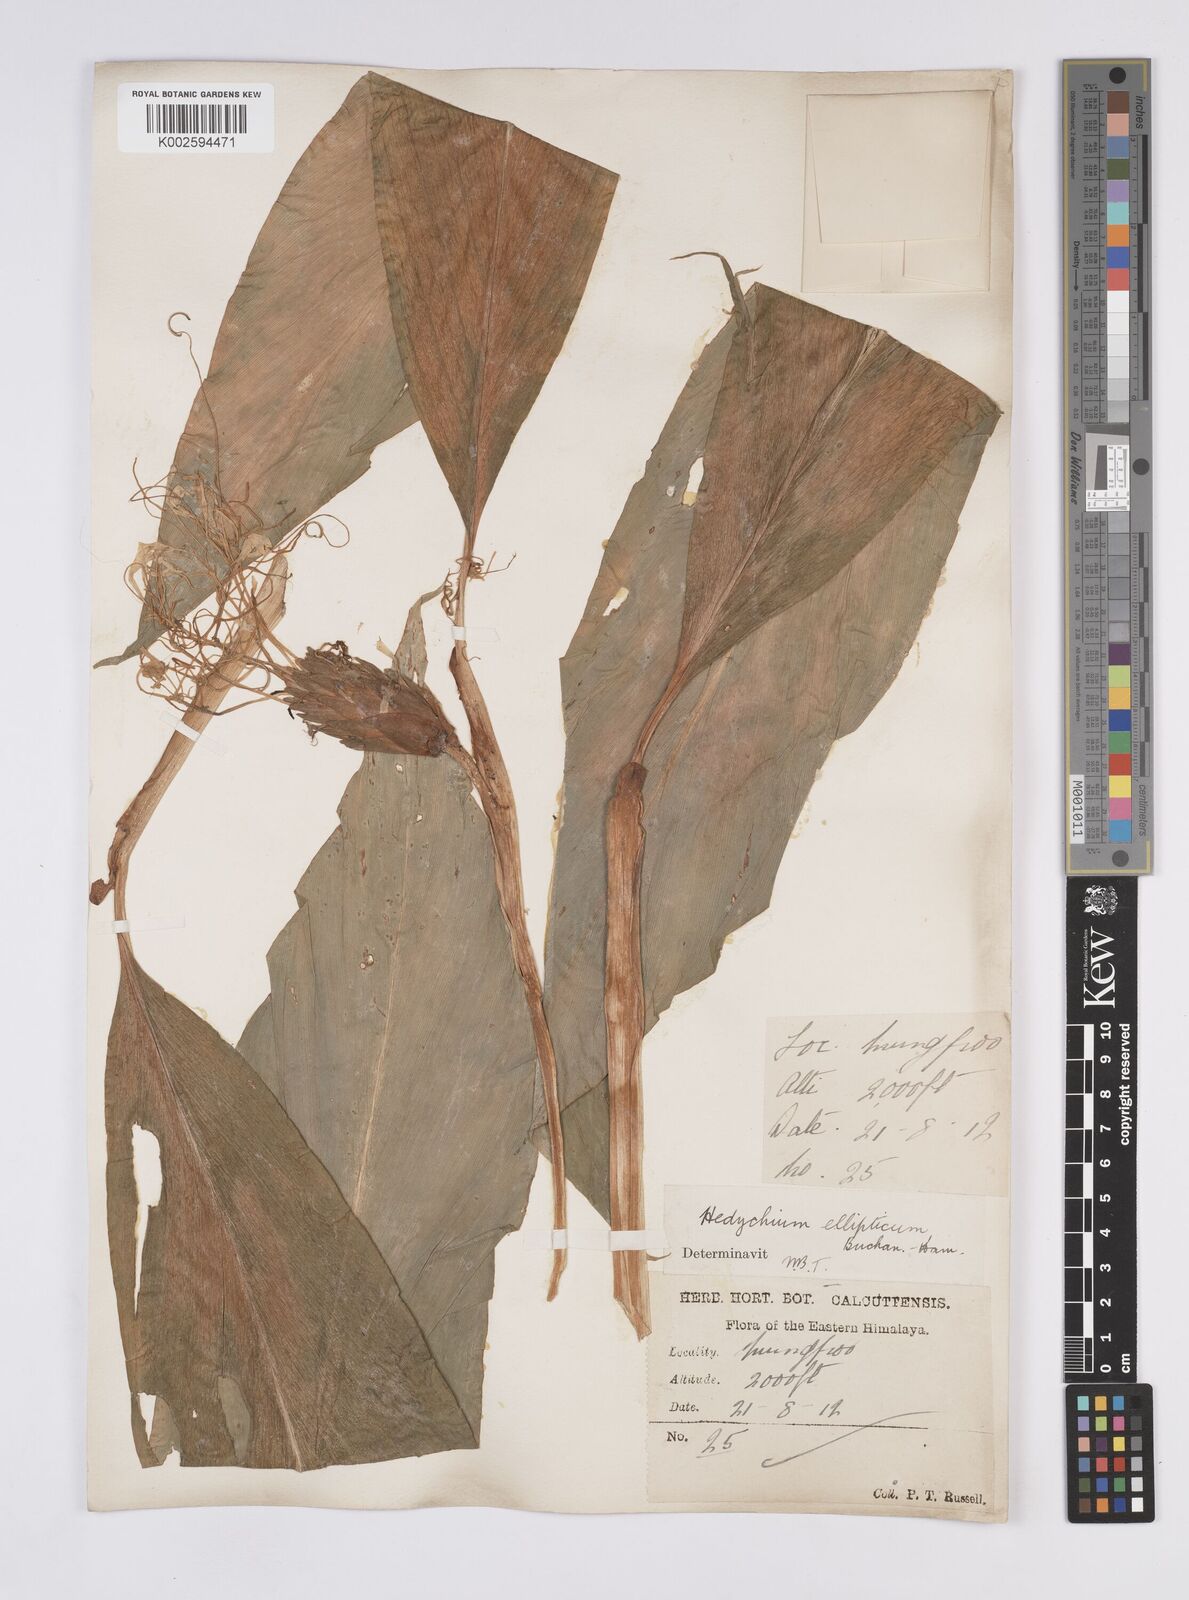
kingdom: Plantae
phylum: Tracheophyta
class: Liliopsida
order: Zingiberales
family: Zingiberaceae
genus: Hedychium
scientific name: Hedychium ellipticum
